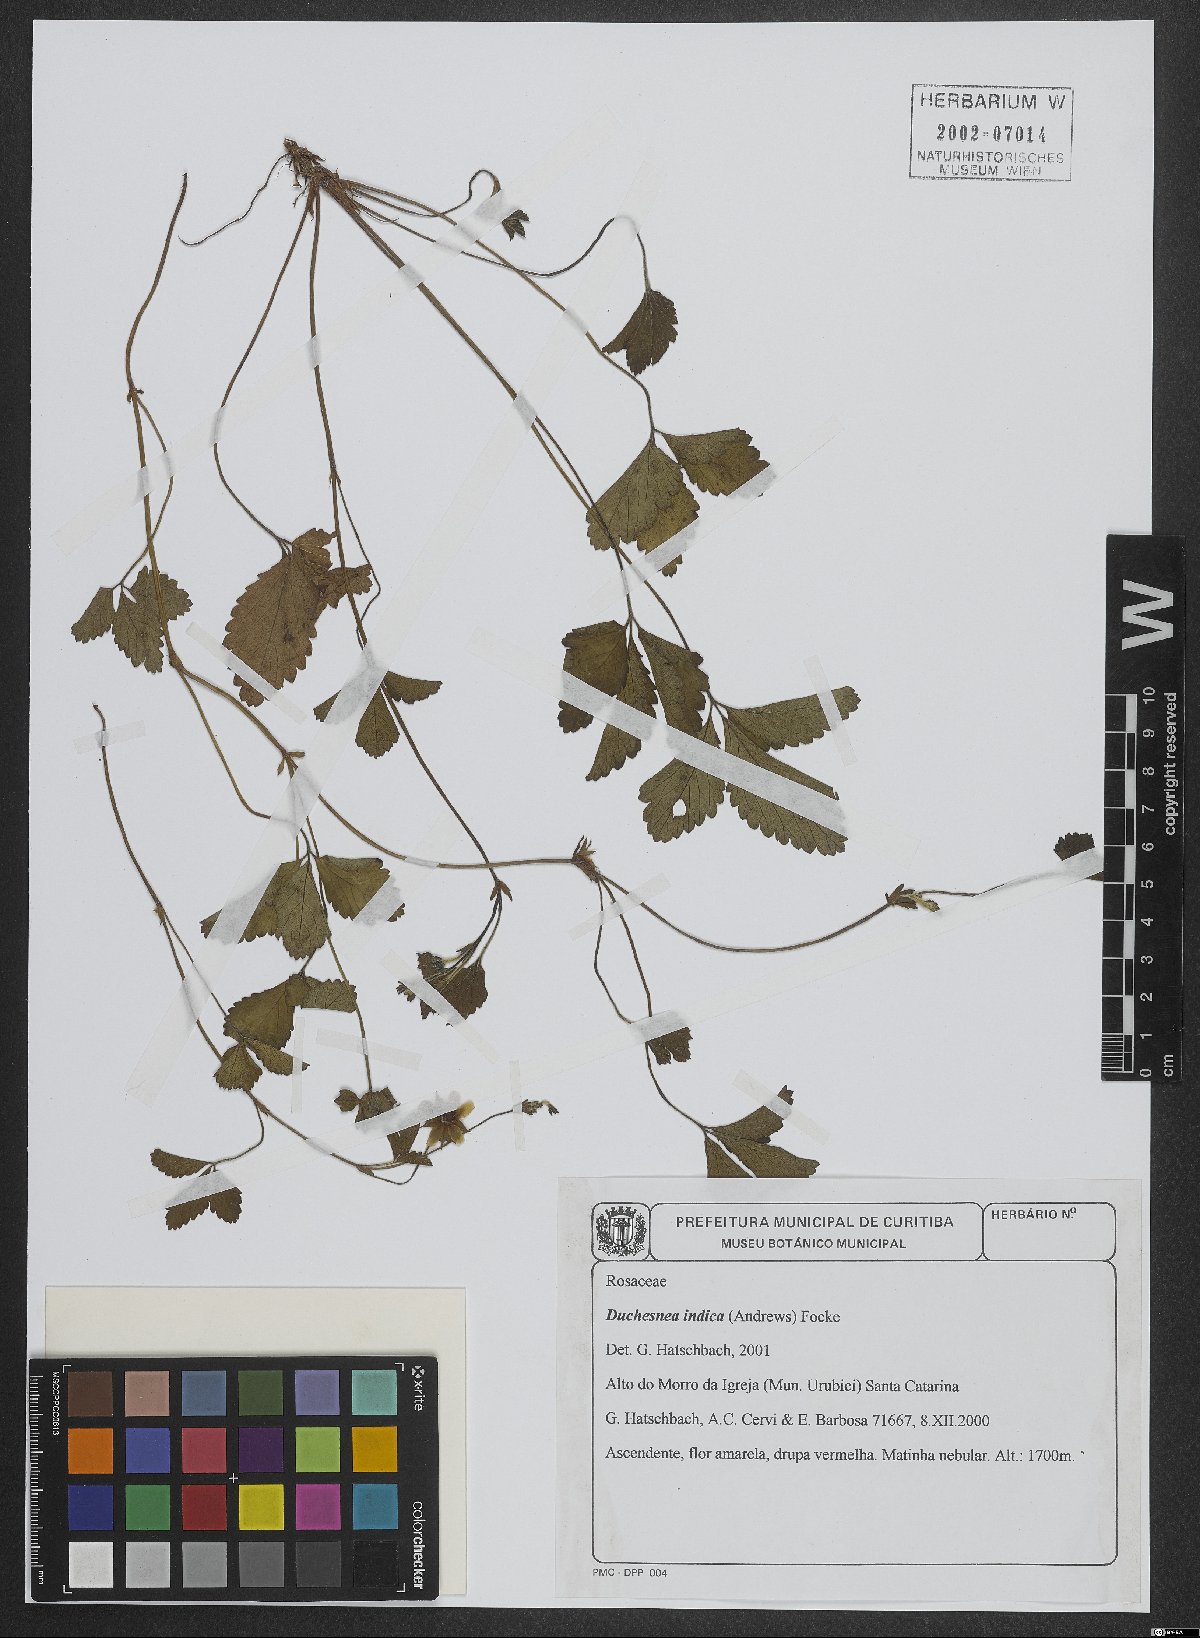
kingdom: Plantae
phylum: Tracheophyta
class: Magnoliopsida
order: Rosales
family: Rosaceae
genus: Potentilla
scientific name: Potentilla indica
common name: Yellow-flowered strawberry
